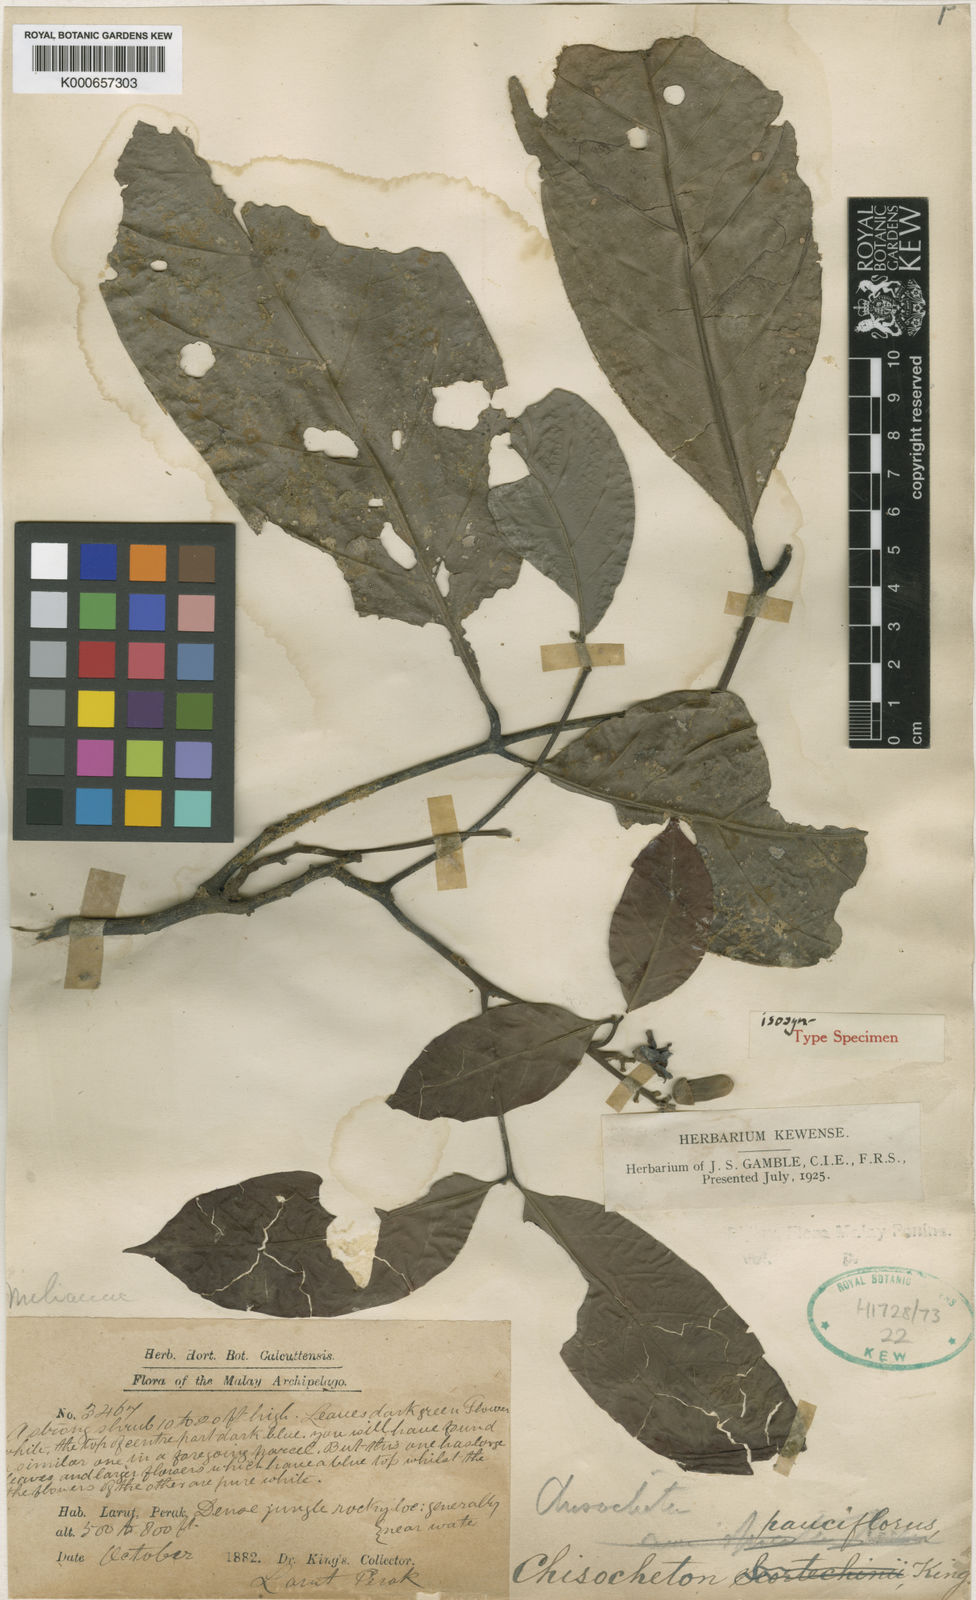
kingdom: Plantae
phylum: Tracheophyta
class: Magnoliopsida
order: Sapindales
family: Meliaceae
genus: Chisocheton
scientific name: Chisocheton pauciflorus
